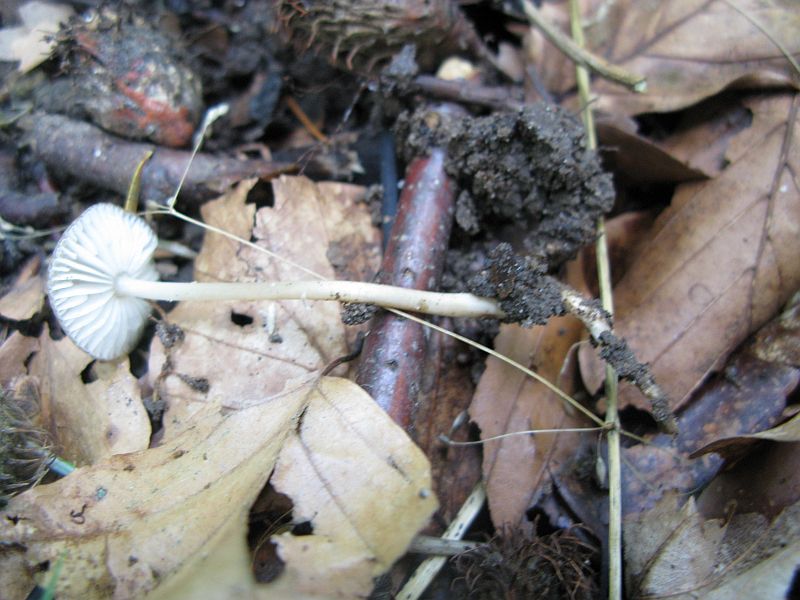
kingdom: Fungi
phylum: Basidiomycota
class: Agaricomycetes
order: Agaricales
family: Physalacriaceae
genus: Hymenopellis
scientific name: Hymenopellis radicata
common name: almindelig pælerodshat
